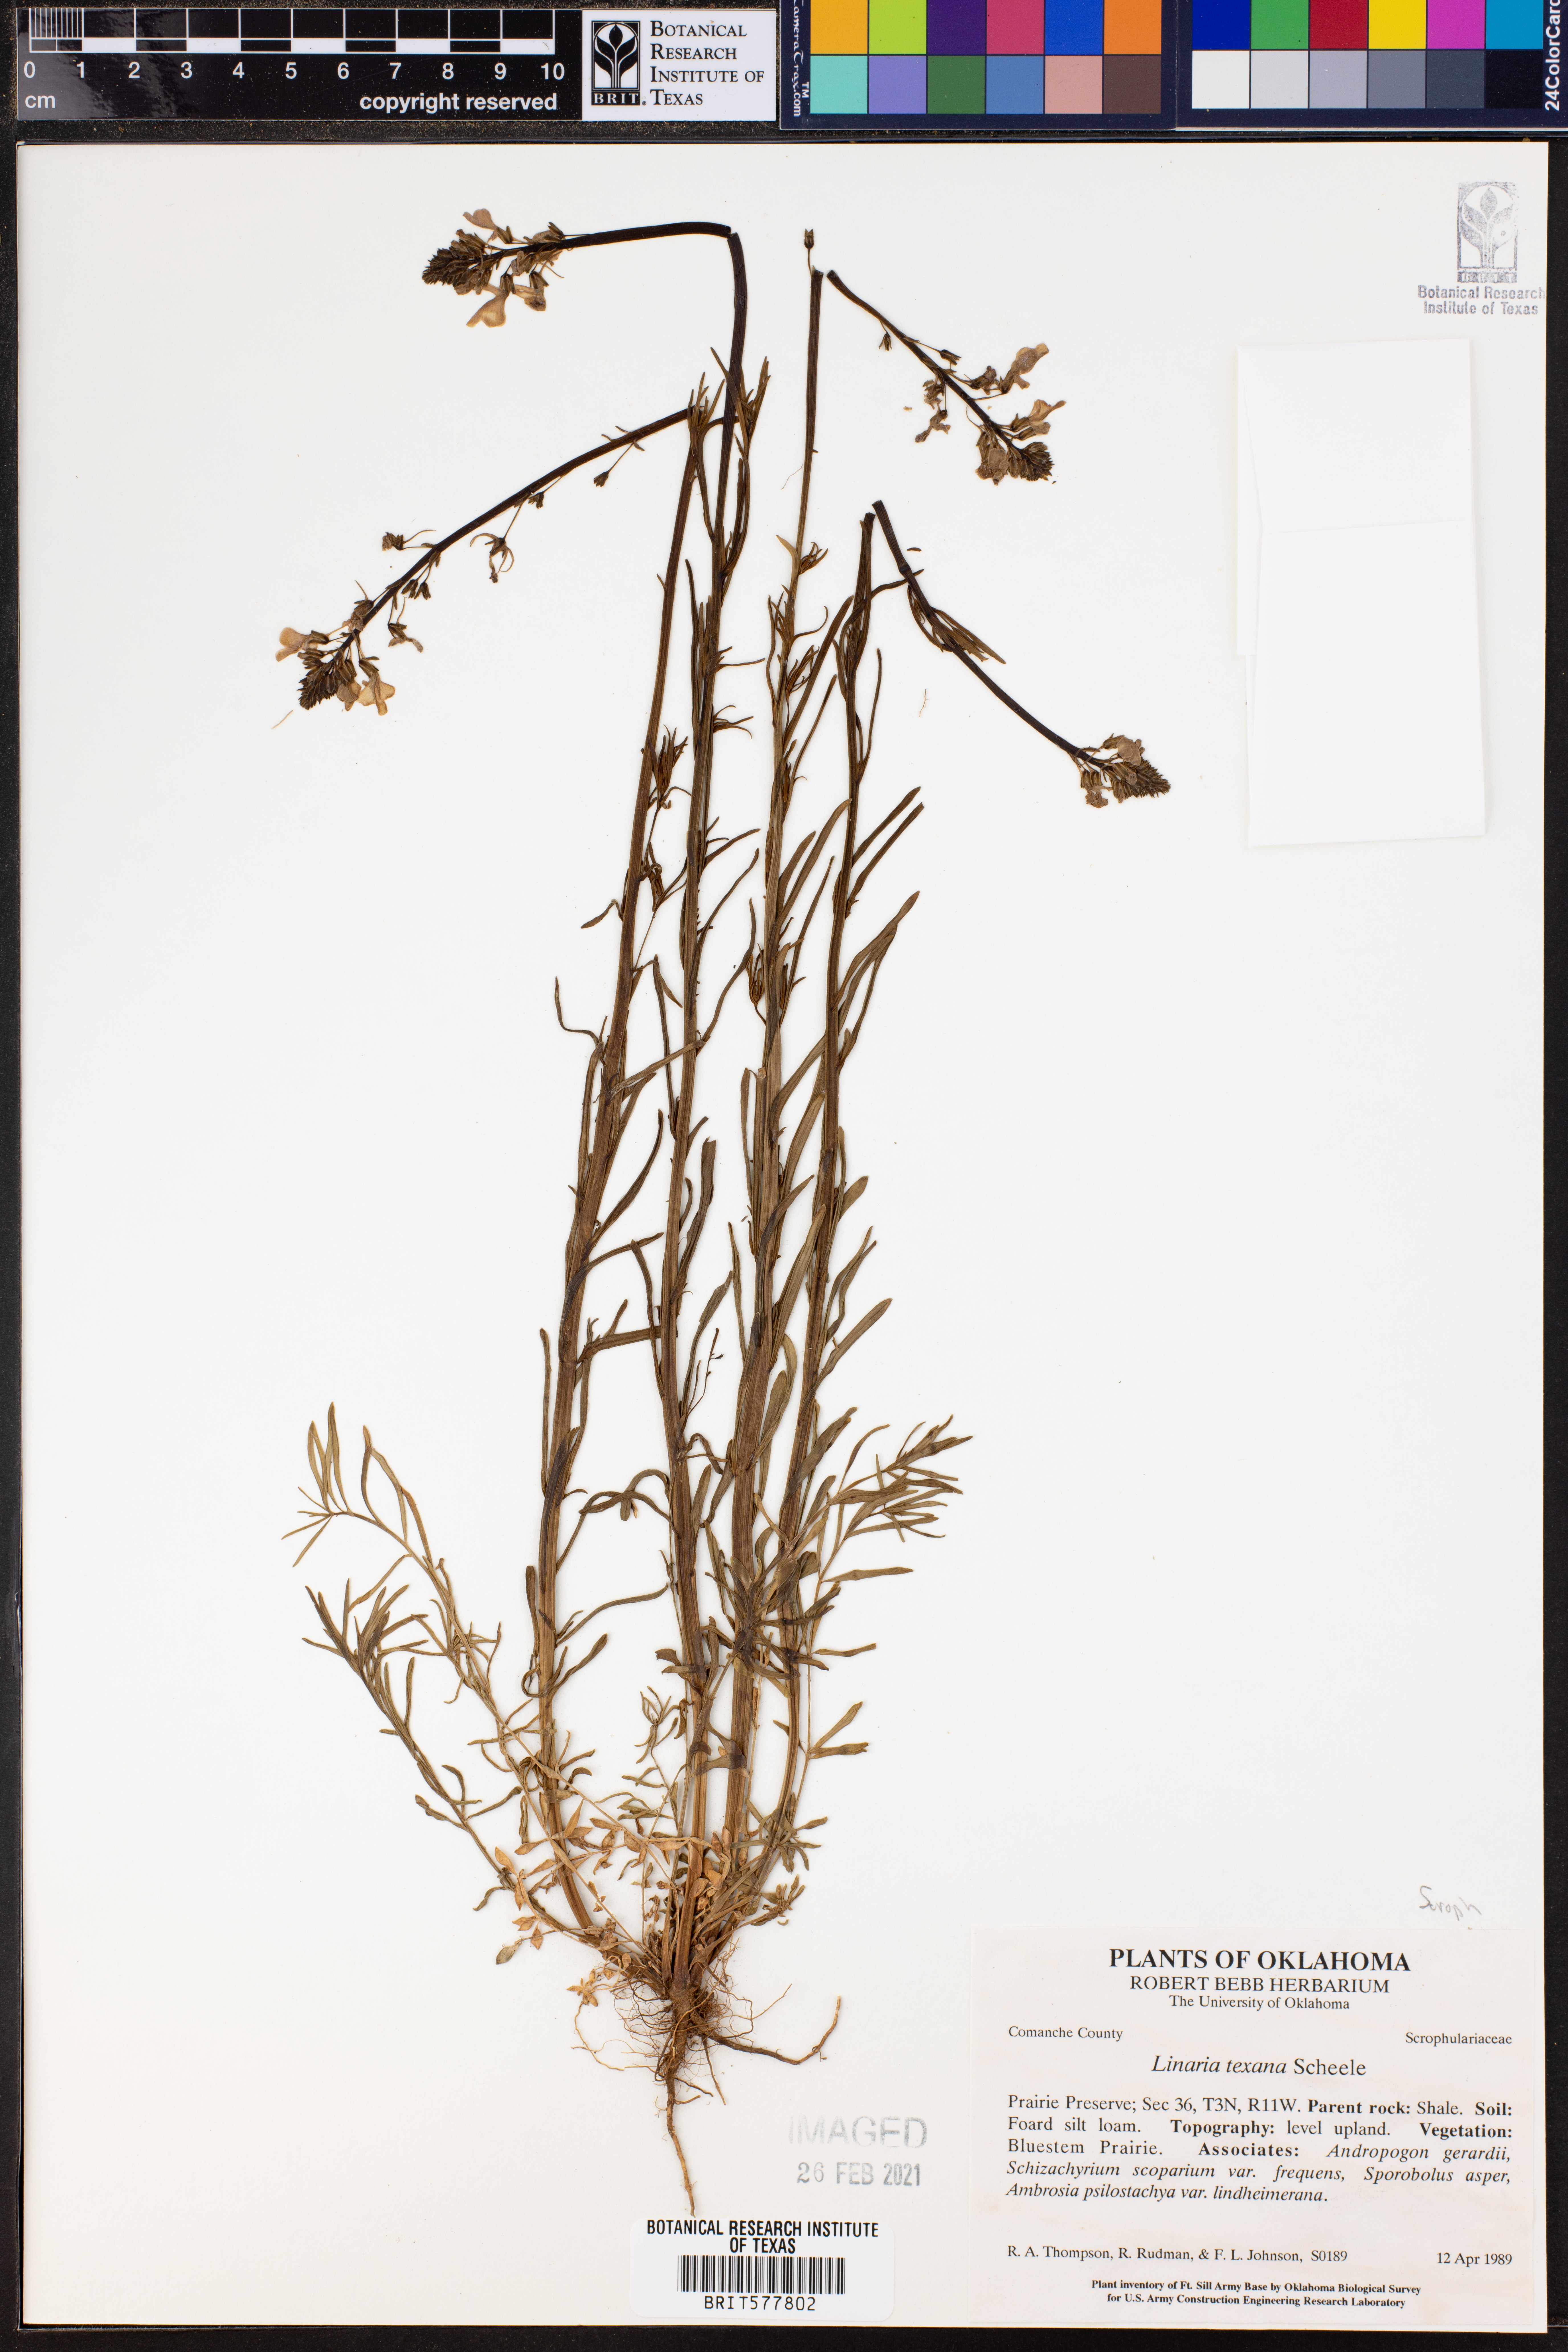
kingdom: Plantae
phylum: Tracheophyta
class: Magnoliopsida
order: Lamiales
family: Plantaginaceae
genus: Nuttallanthus
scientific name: Nuttallanthus texanus
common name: Texas toadflax
